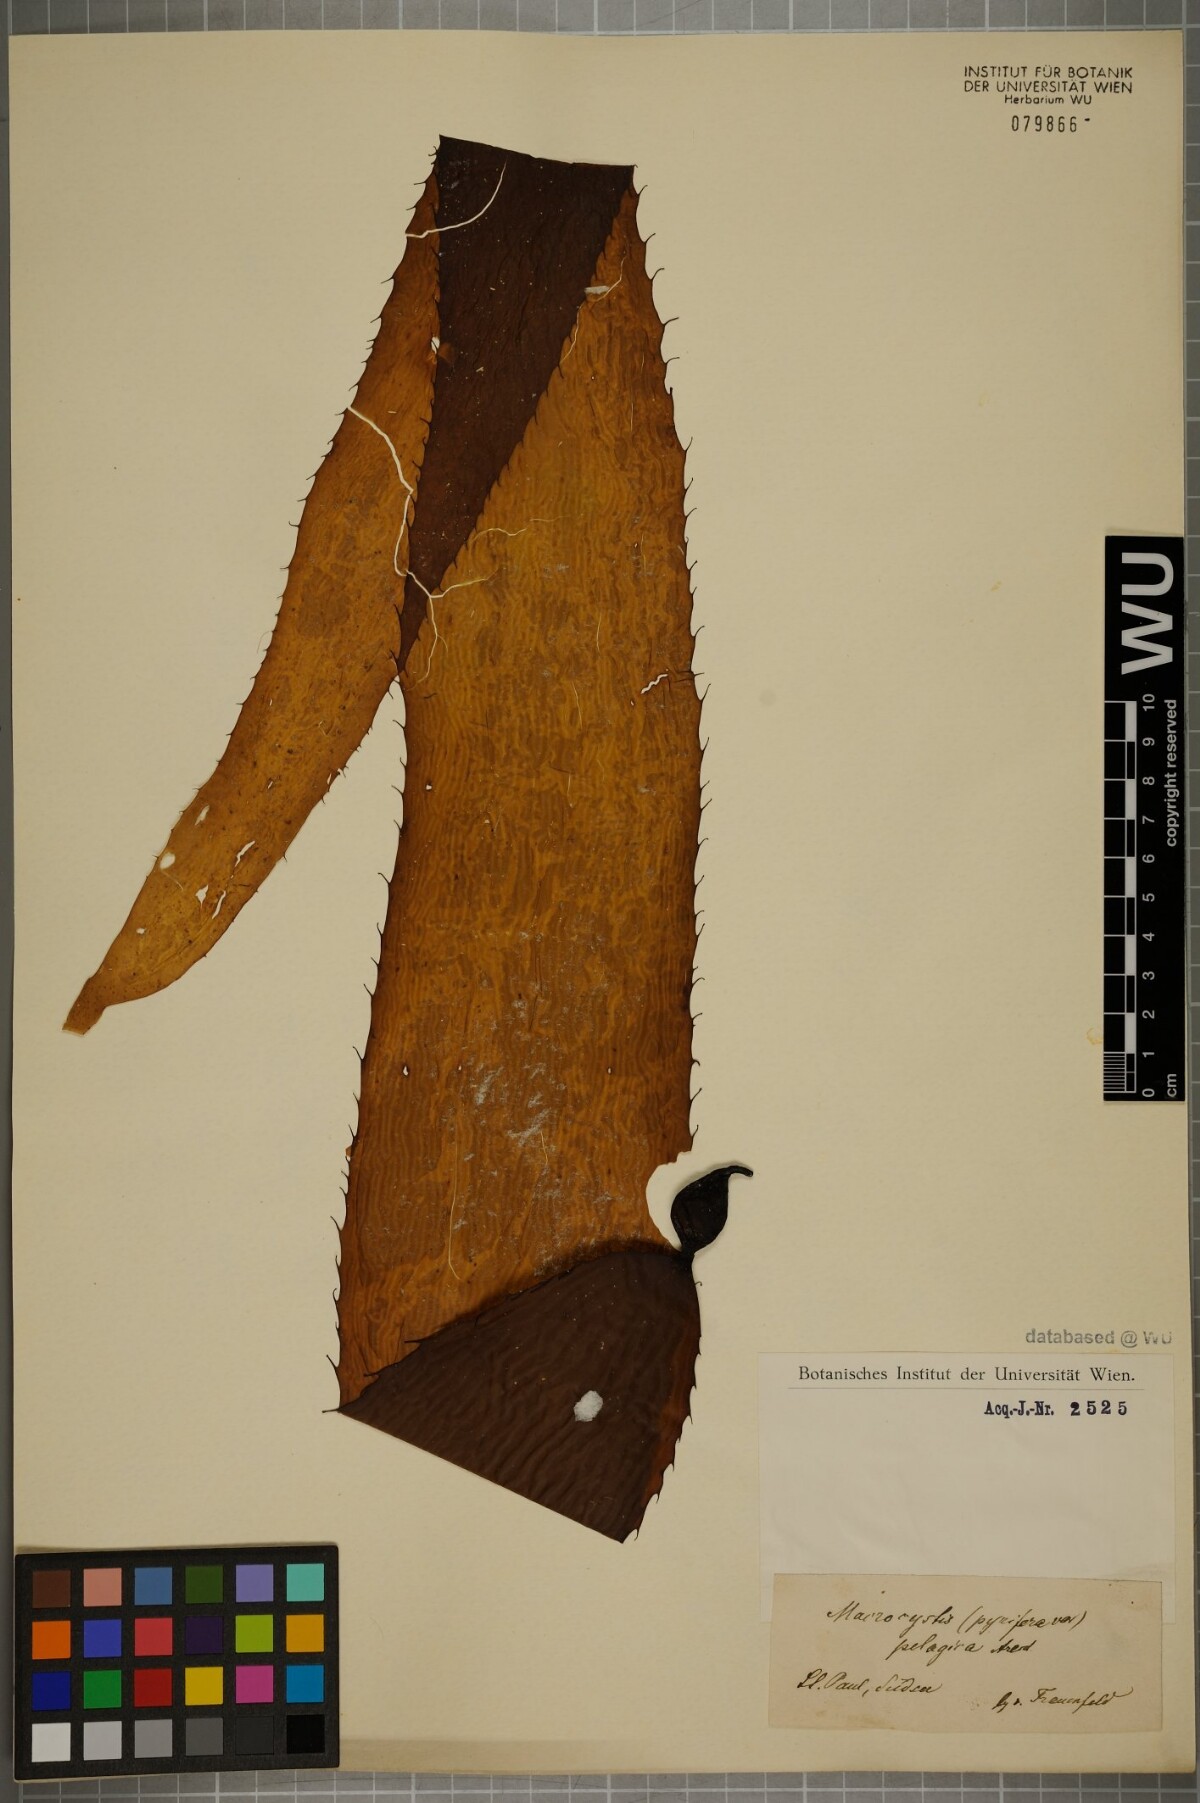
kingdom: Chromista
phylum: Ochrophyta
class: Phaeophyceae
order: Laminariales
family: Laminariaceae
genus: Macrocystis
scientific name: Macrocystis pyrifera
